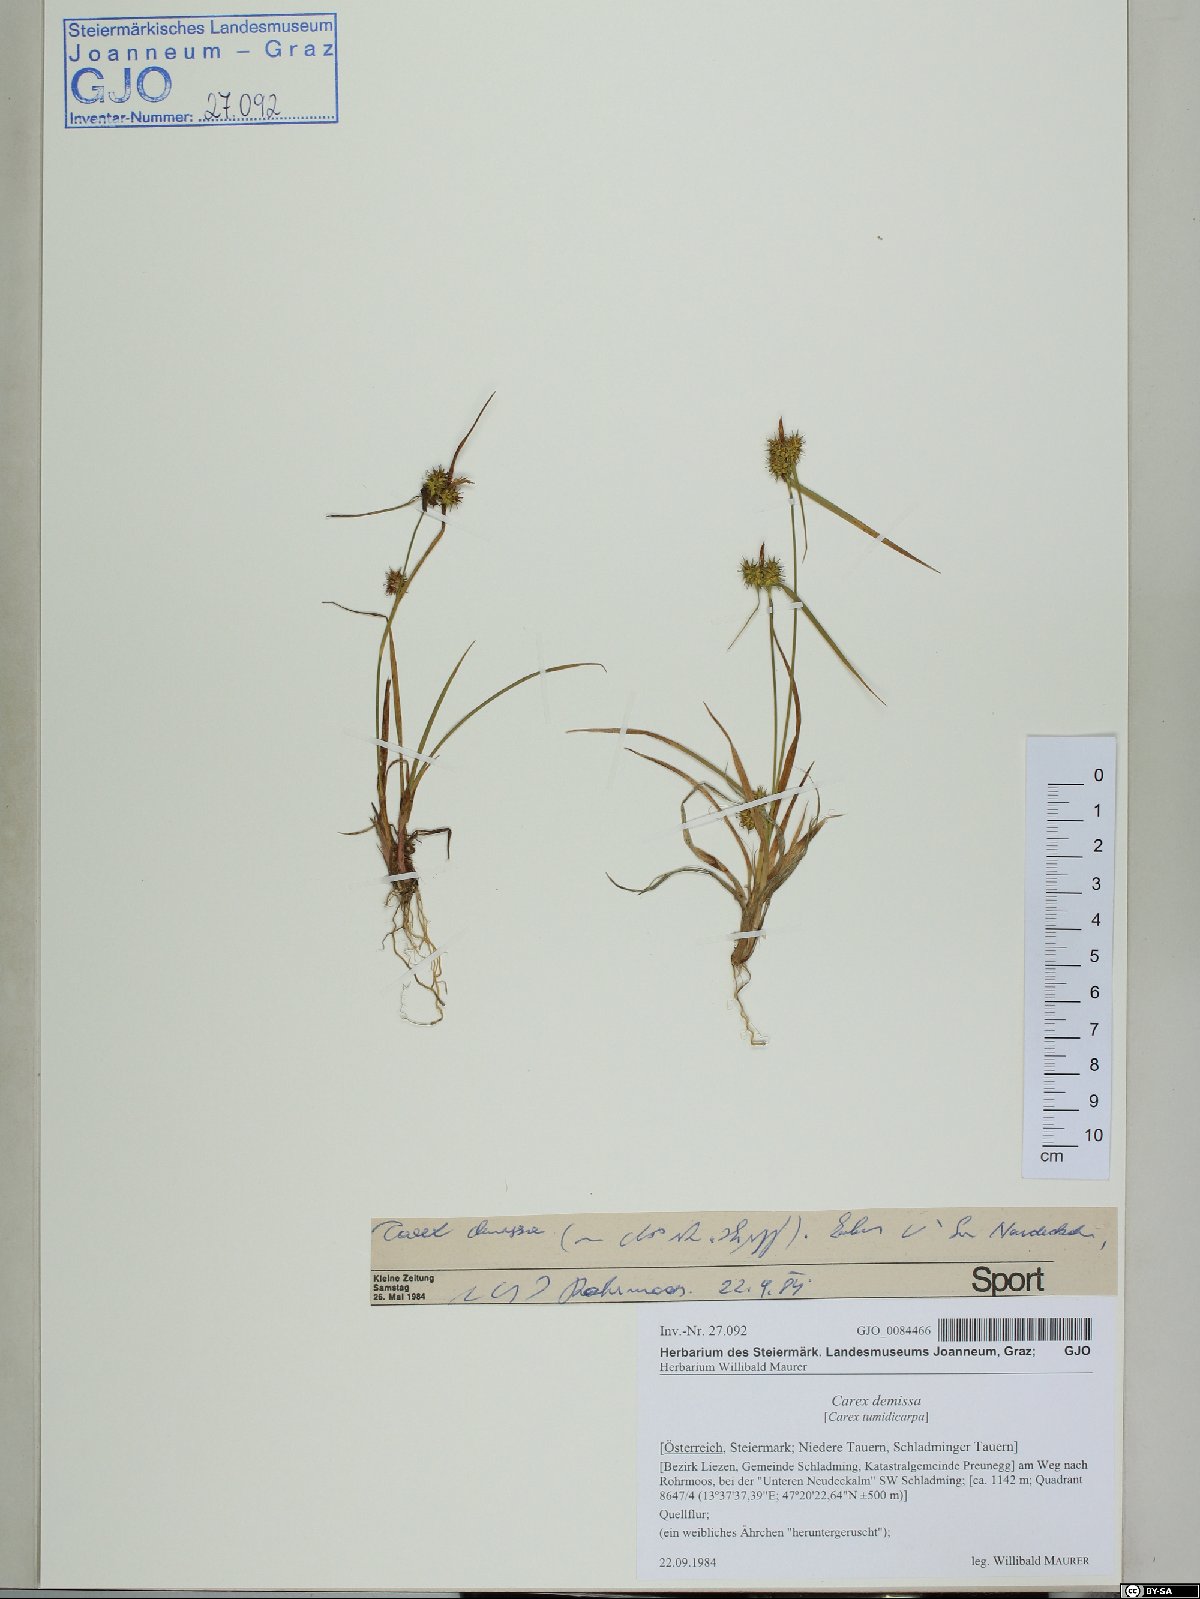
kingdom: Plantae
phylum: Tracheophyta
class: Liliopsida
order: Poales
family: Cyperaceae
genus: Carex
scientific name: Carex demissa
